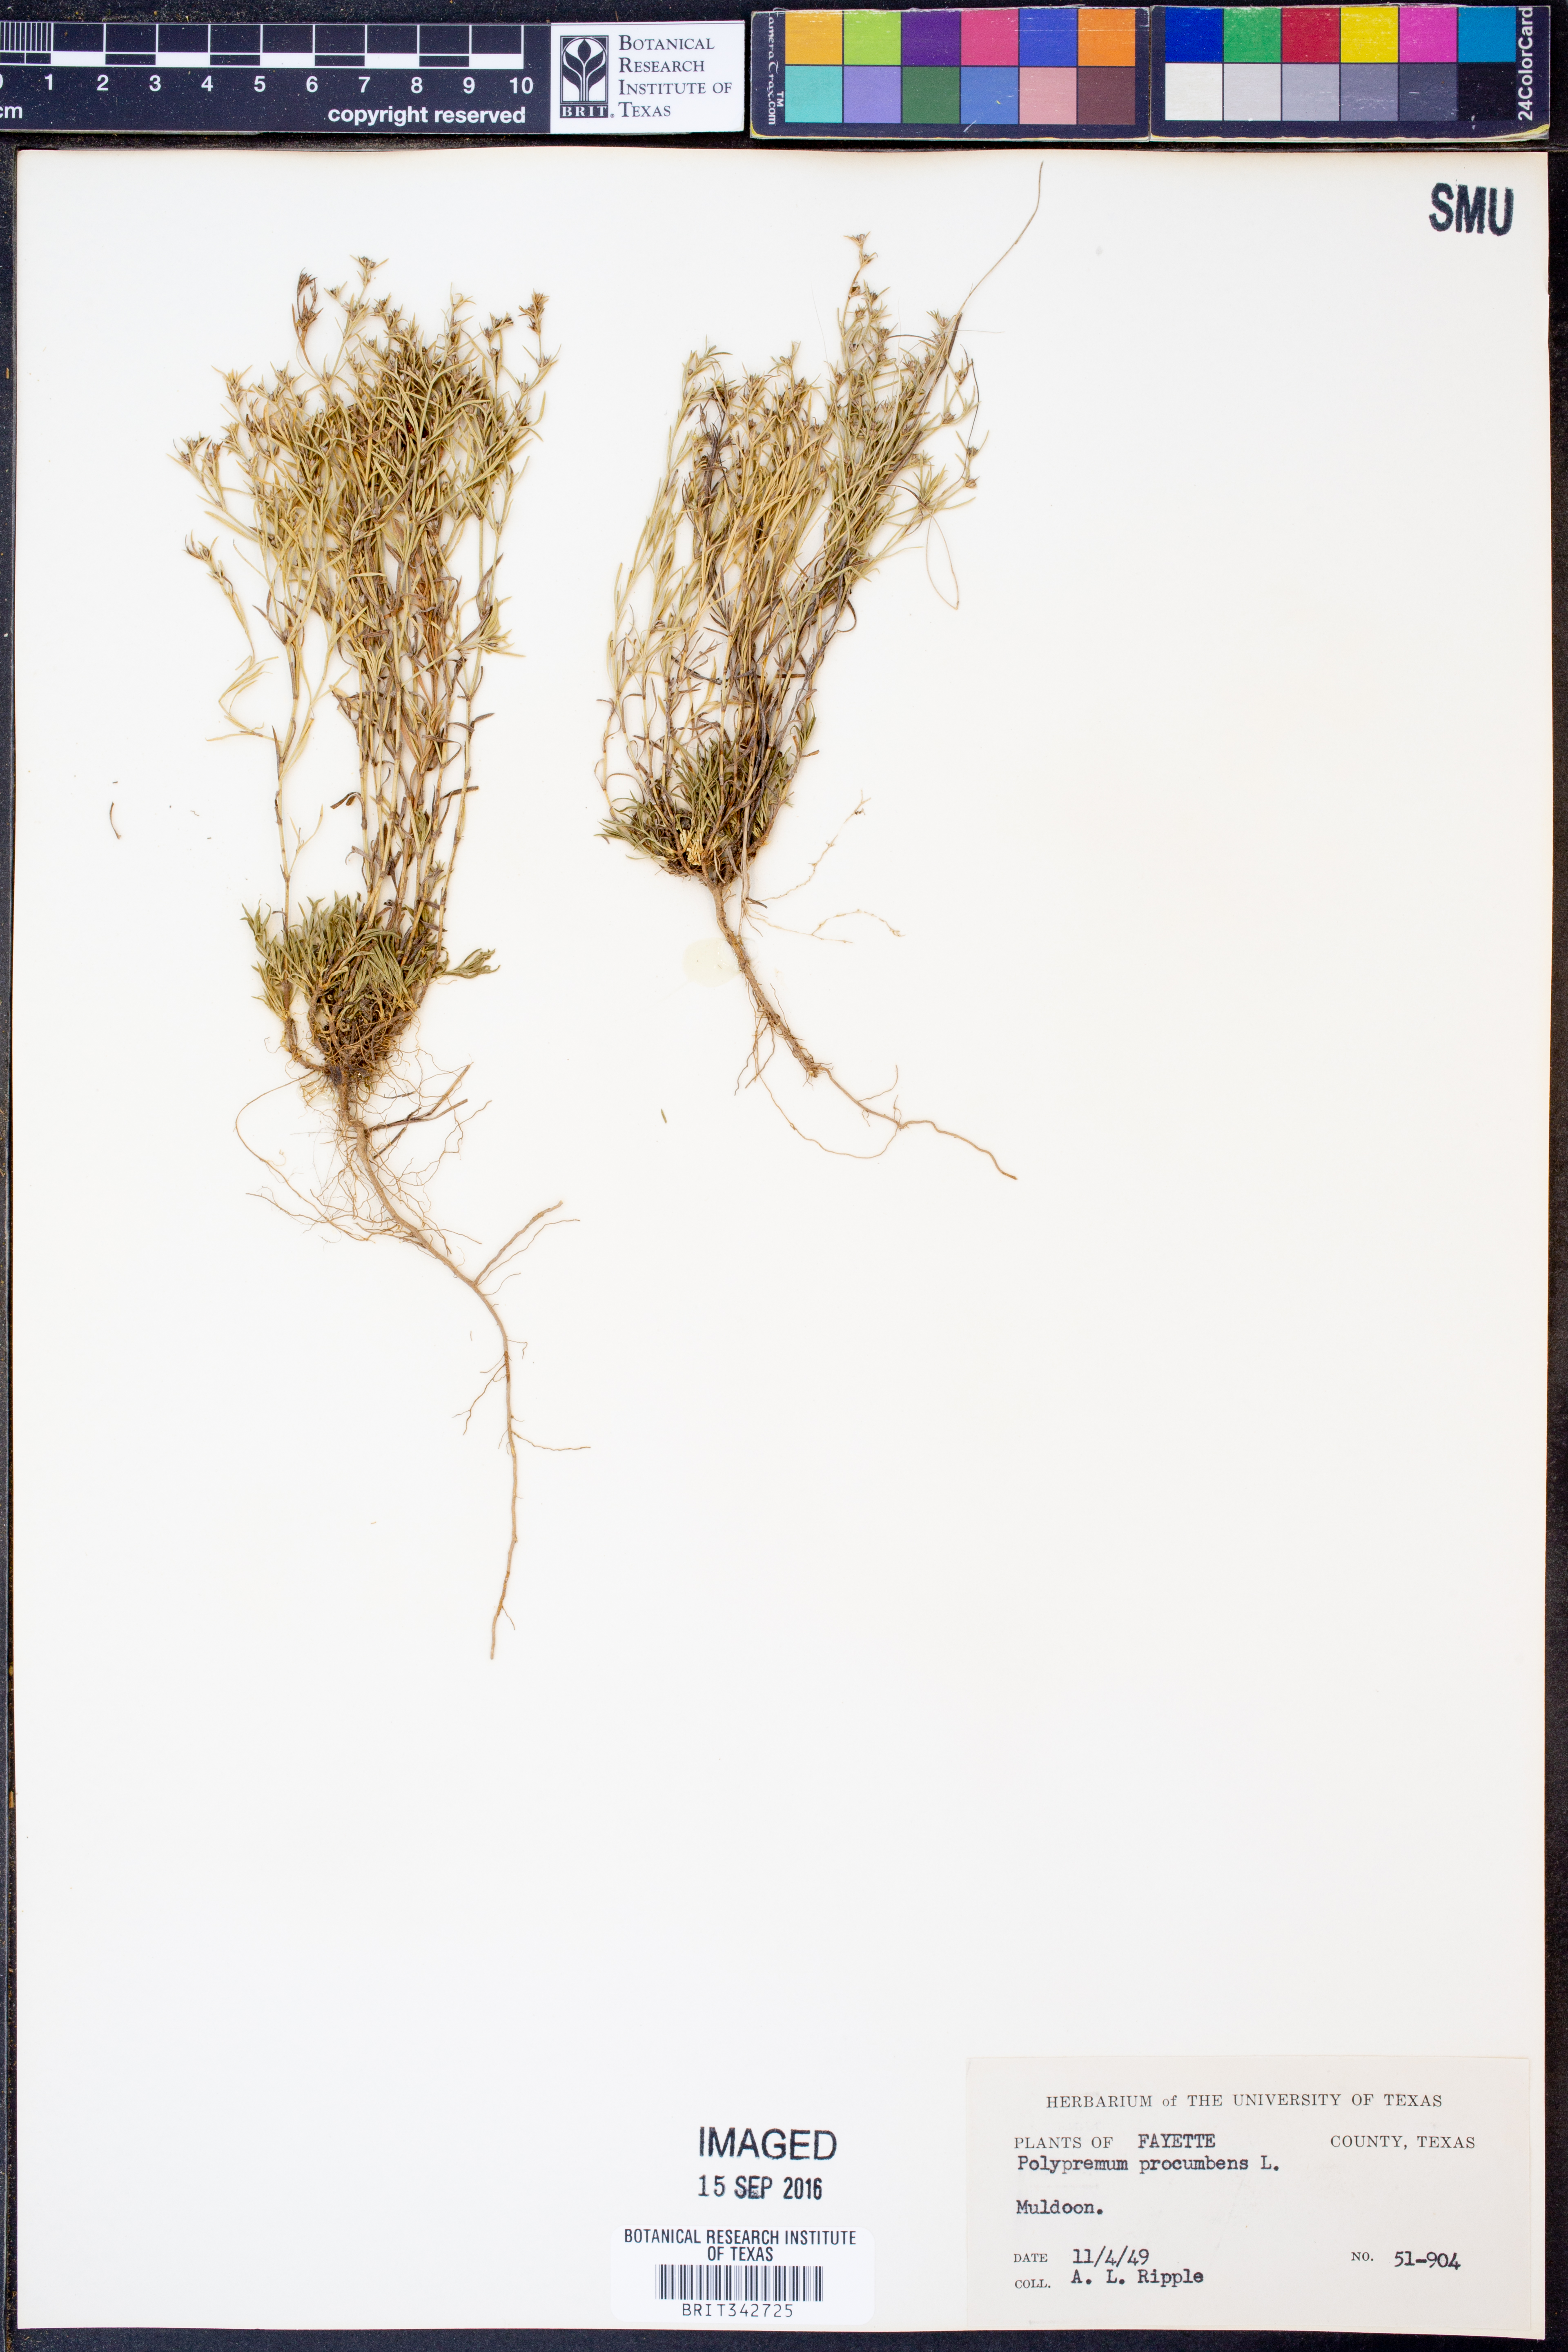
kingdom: Plantae
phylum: Tracheophyta
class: Magnoliopsida
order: Lamiales
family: Tetrachondraceae
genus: Polypremum
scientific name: Polypremum procumbens
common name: Juniper-leaf
